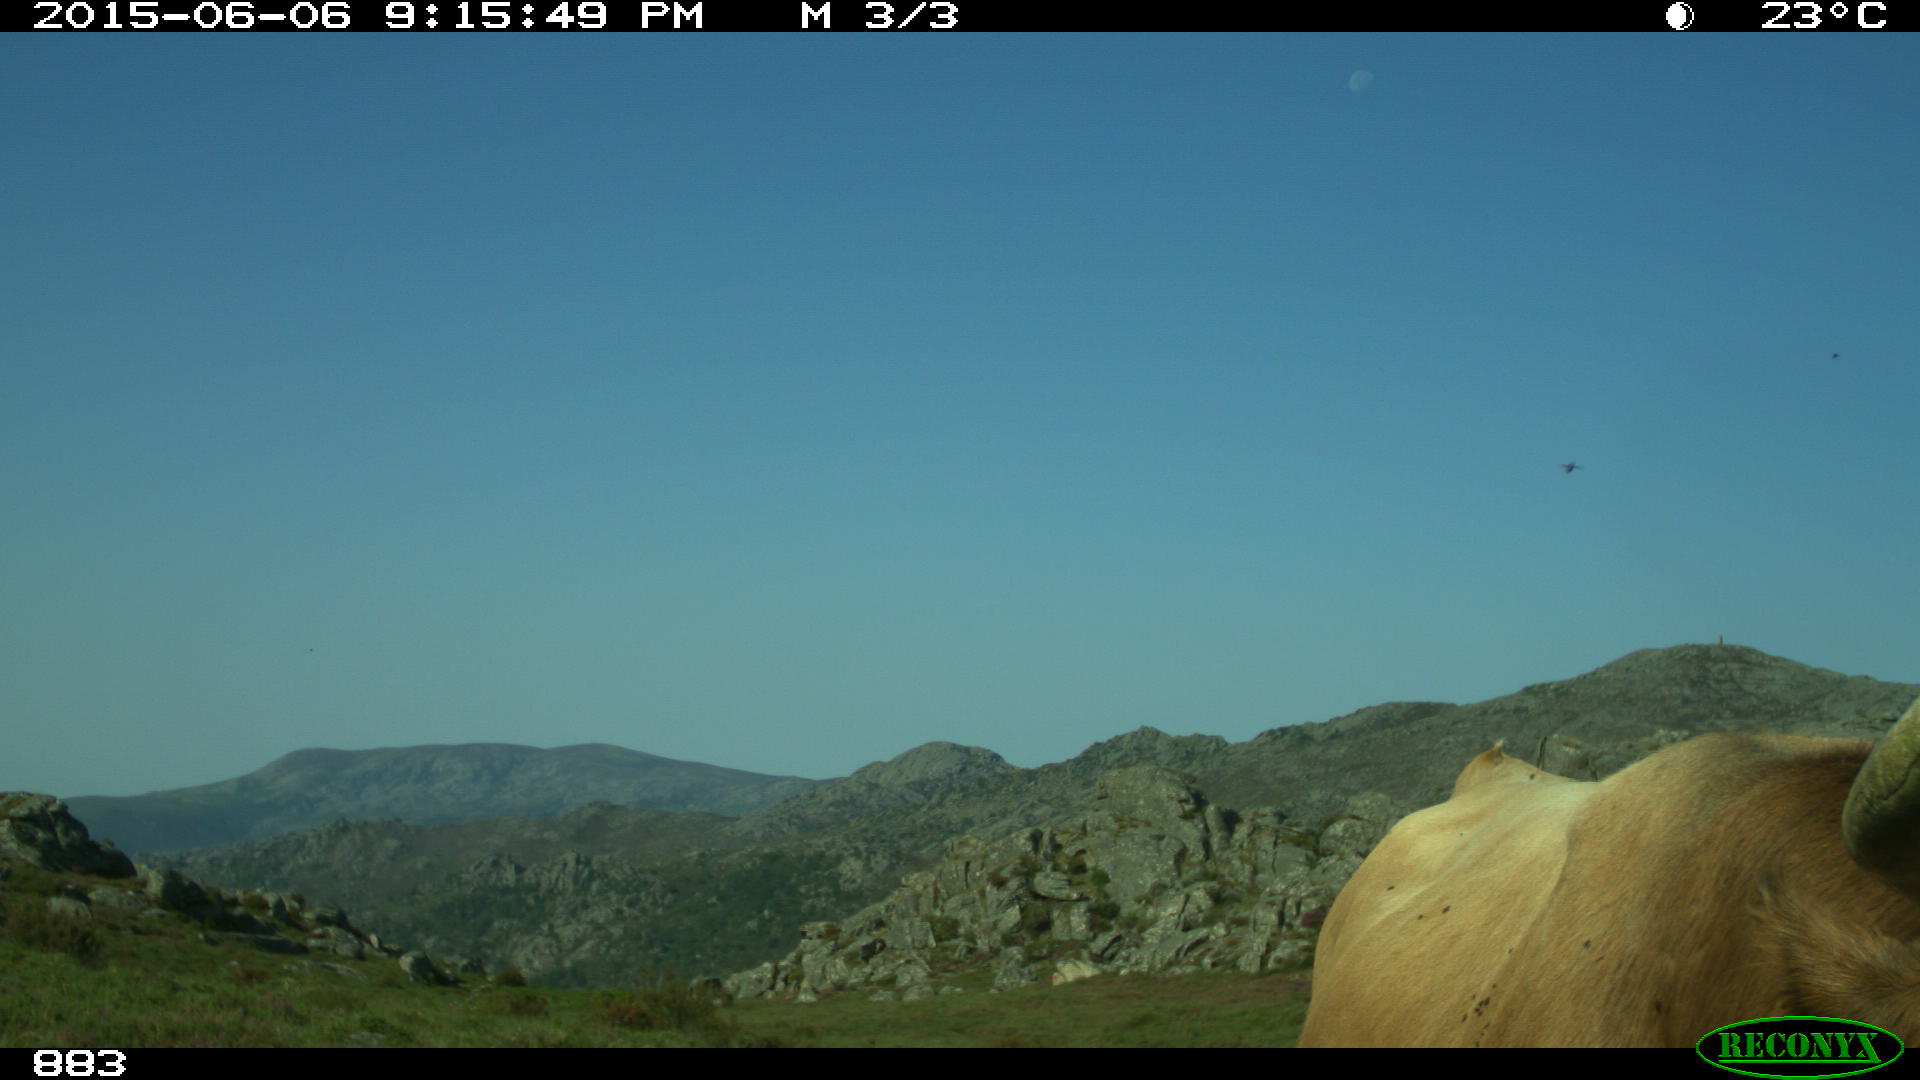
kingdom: Animalia
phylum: Chordata
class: Mammalia
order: Artiodactyla
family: Bovidae
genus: Bos
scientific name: Bos taurus
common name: Domesticated cattle
